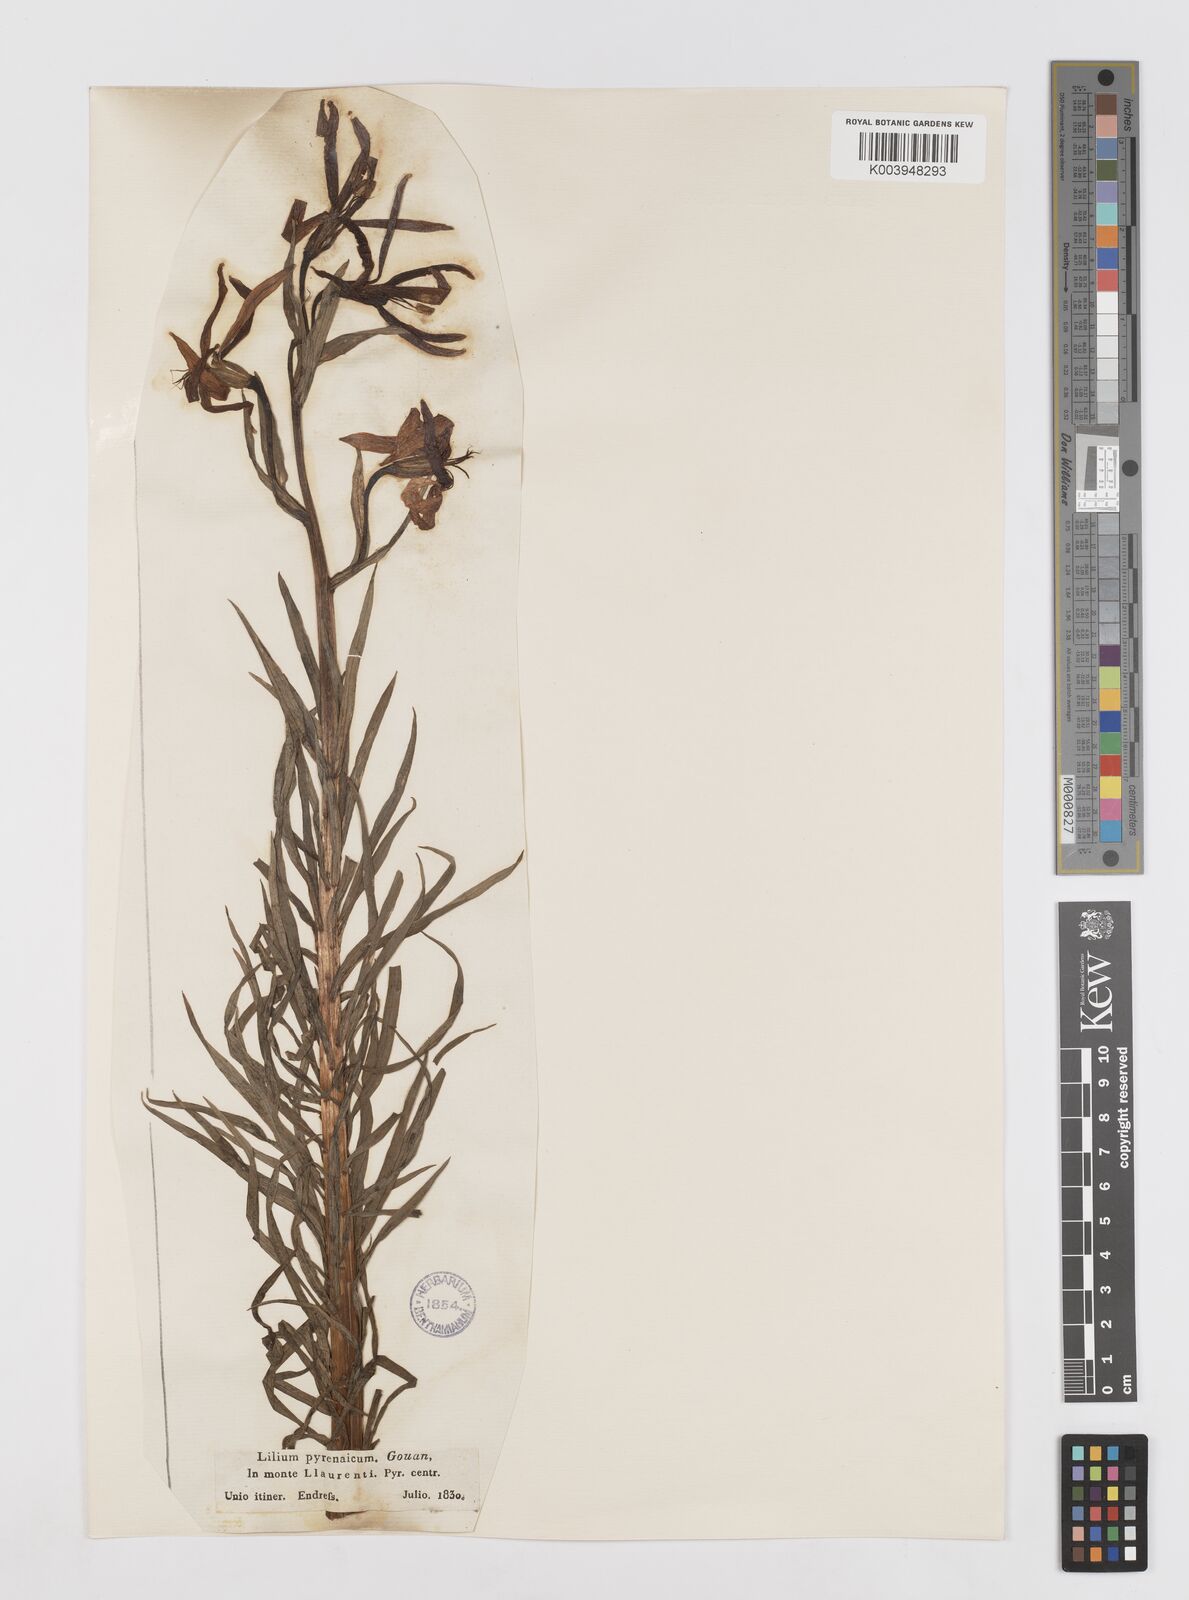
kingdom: Plantae
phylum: Tracheophyta
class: Liliopsida
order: Liliales
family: Liliaceae
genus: Lilium
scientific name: Lilium pyrenaicum
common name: Pyrenean lily
